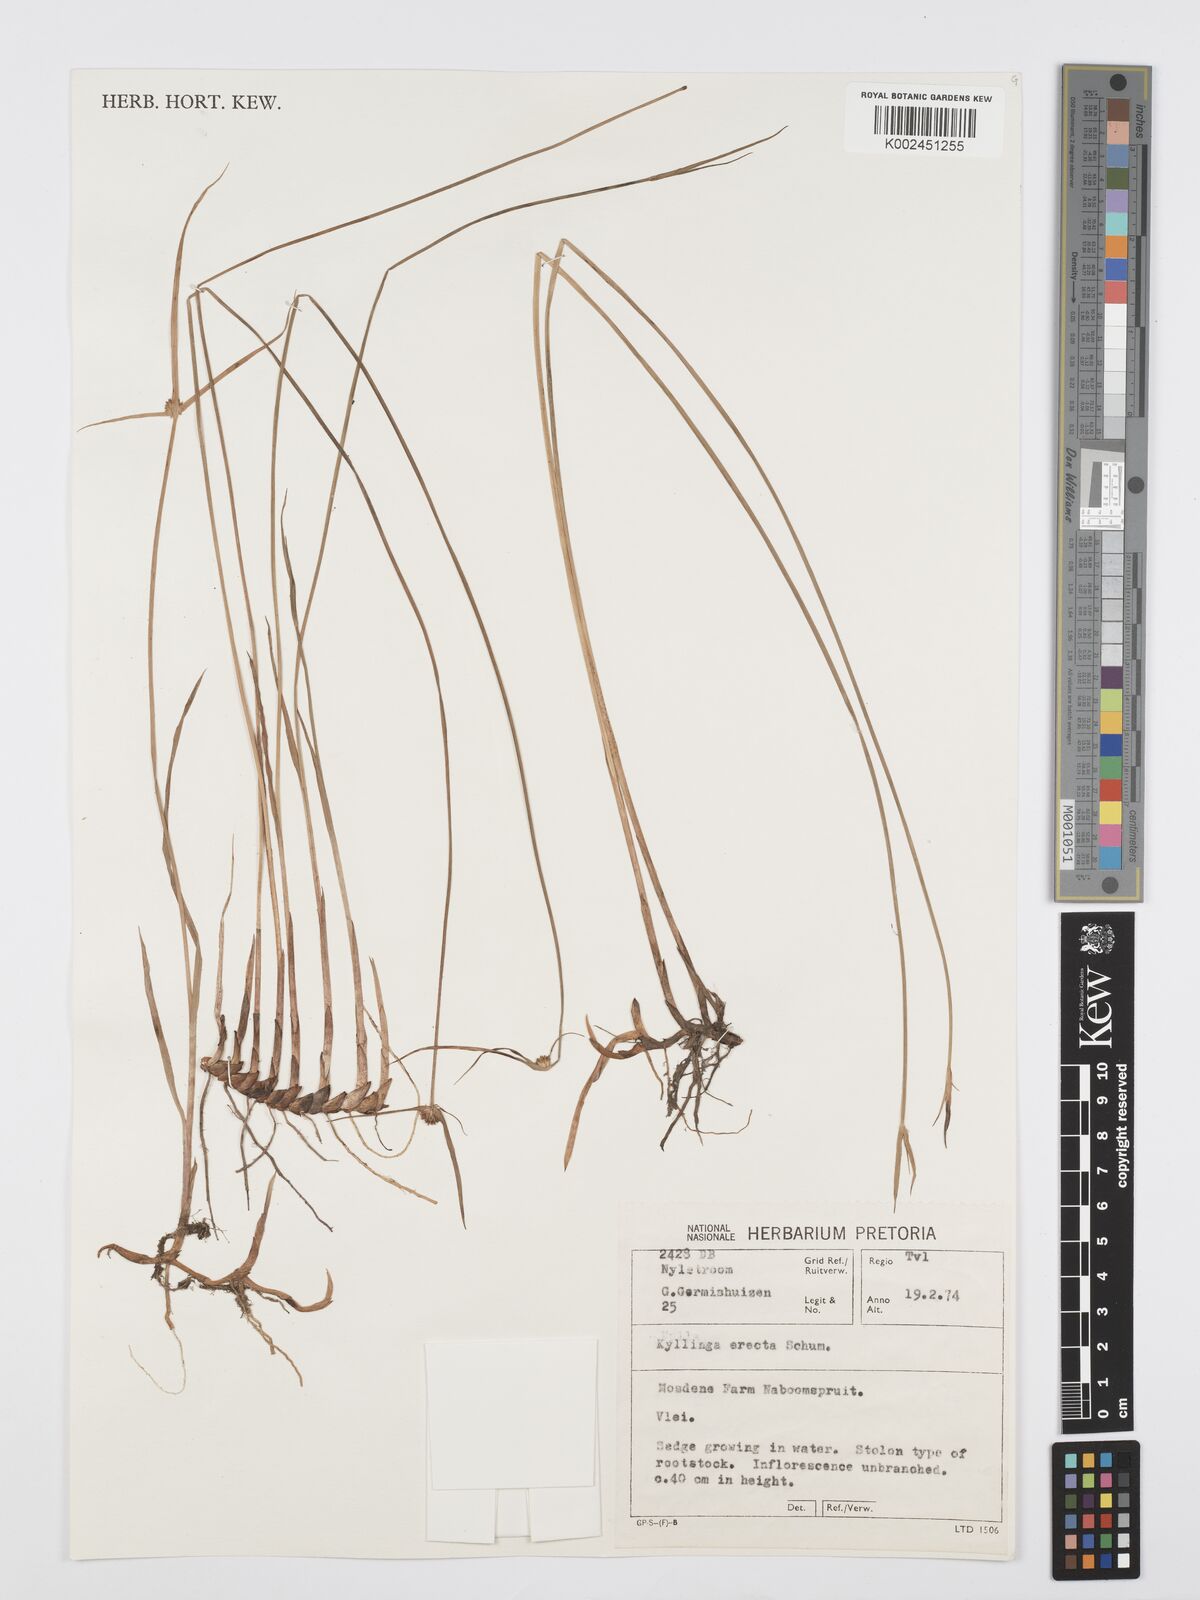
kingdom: Plantae
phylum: Tracheophyta
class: Liliopsida
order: Poales
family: Cyperaceae
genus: Cyperus
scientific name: Cyperus erectus
